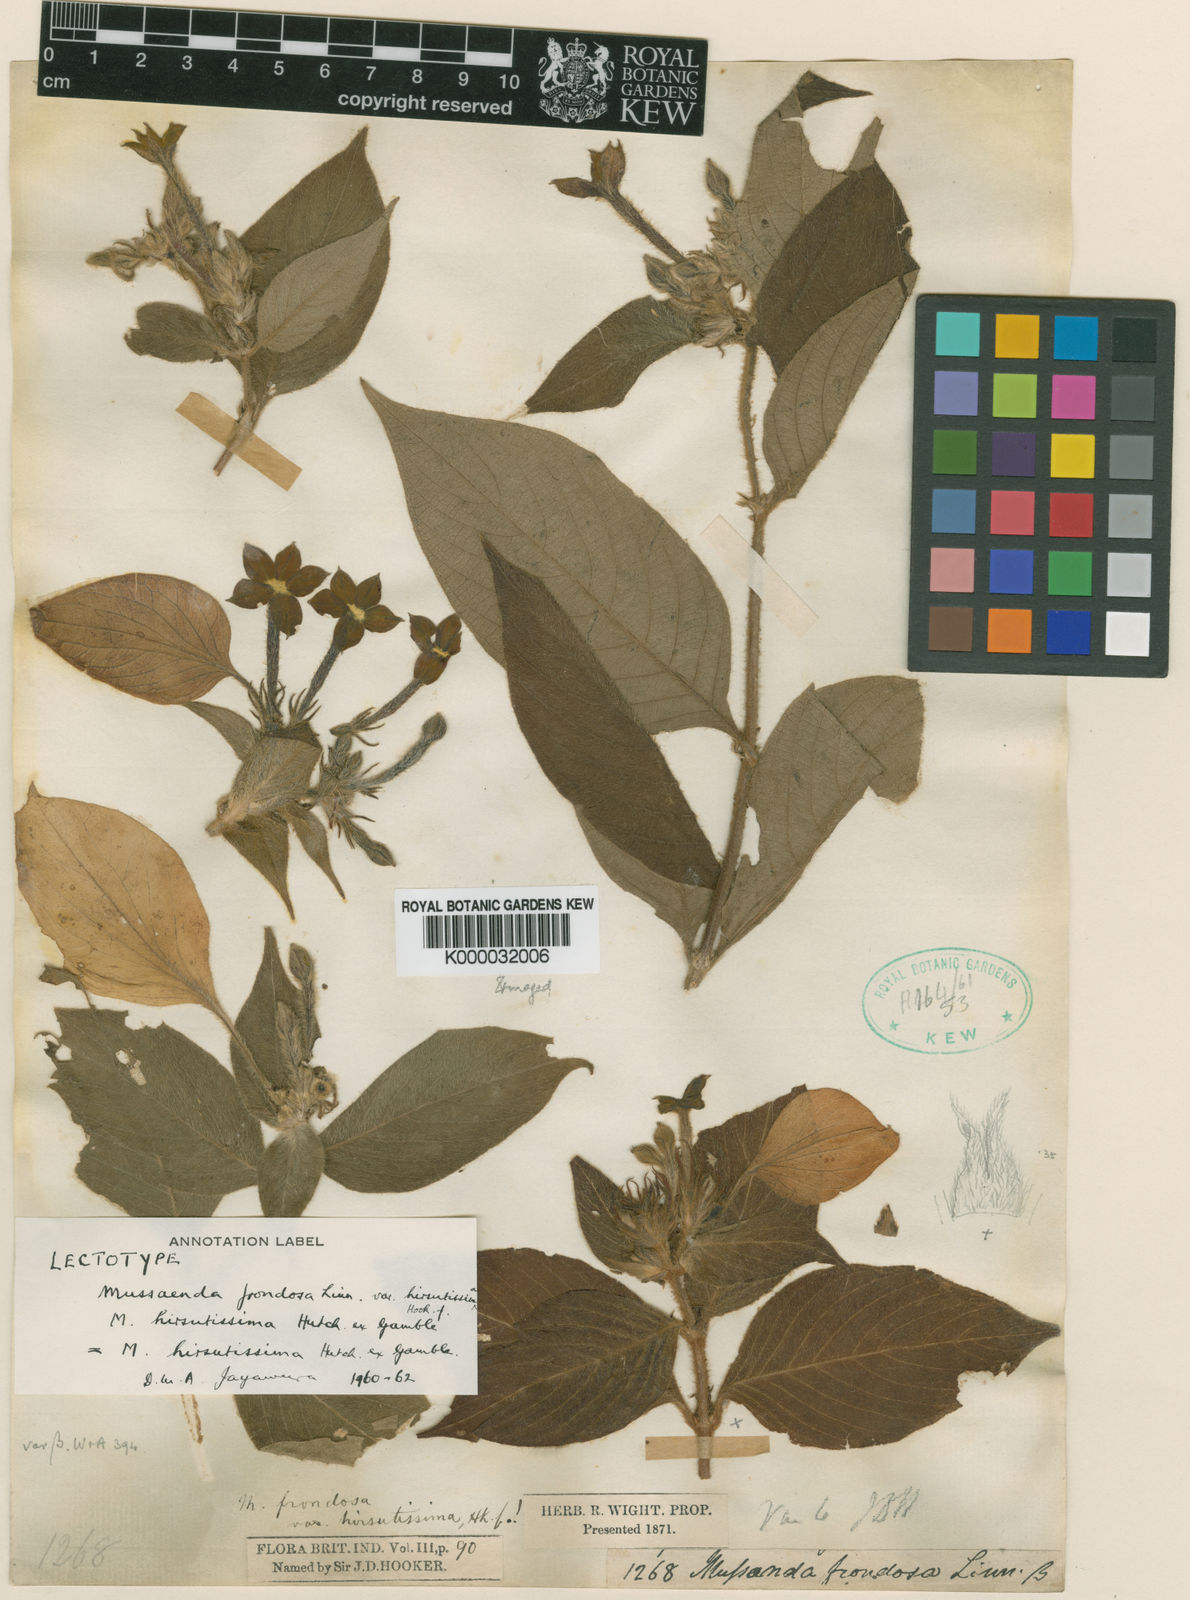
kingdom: Plantae
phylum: Tracheophyta
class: Magnoliopsida
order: Gentianales
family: Rubiaceae
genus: Mussaenda
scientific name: Mussaenda hirsutissima
